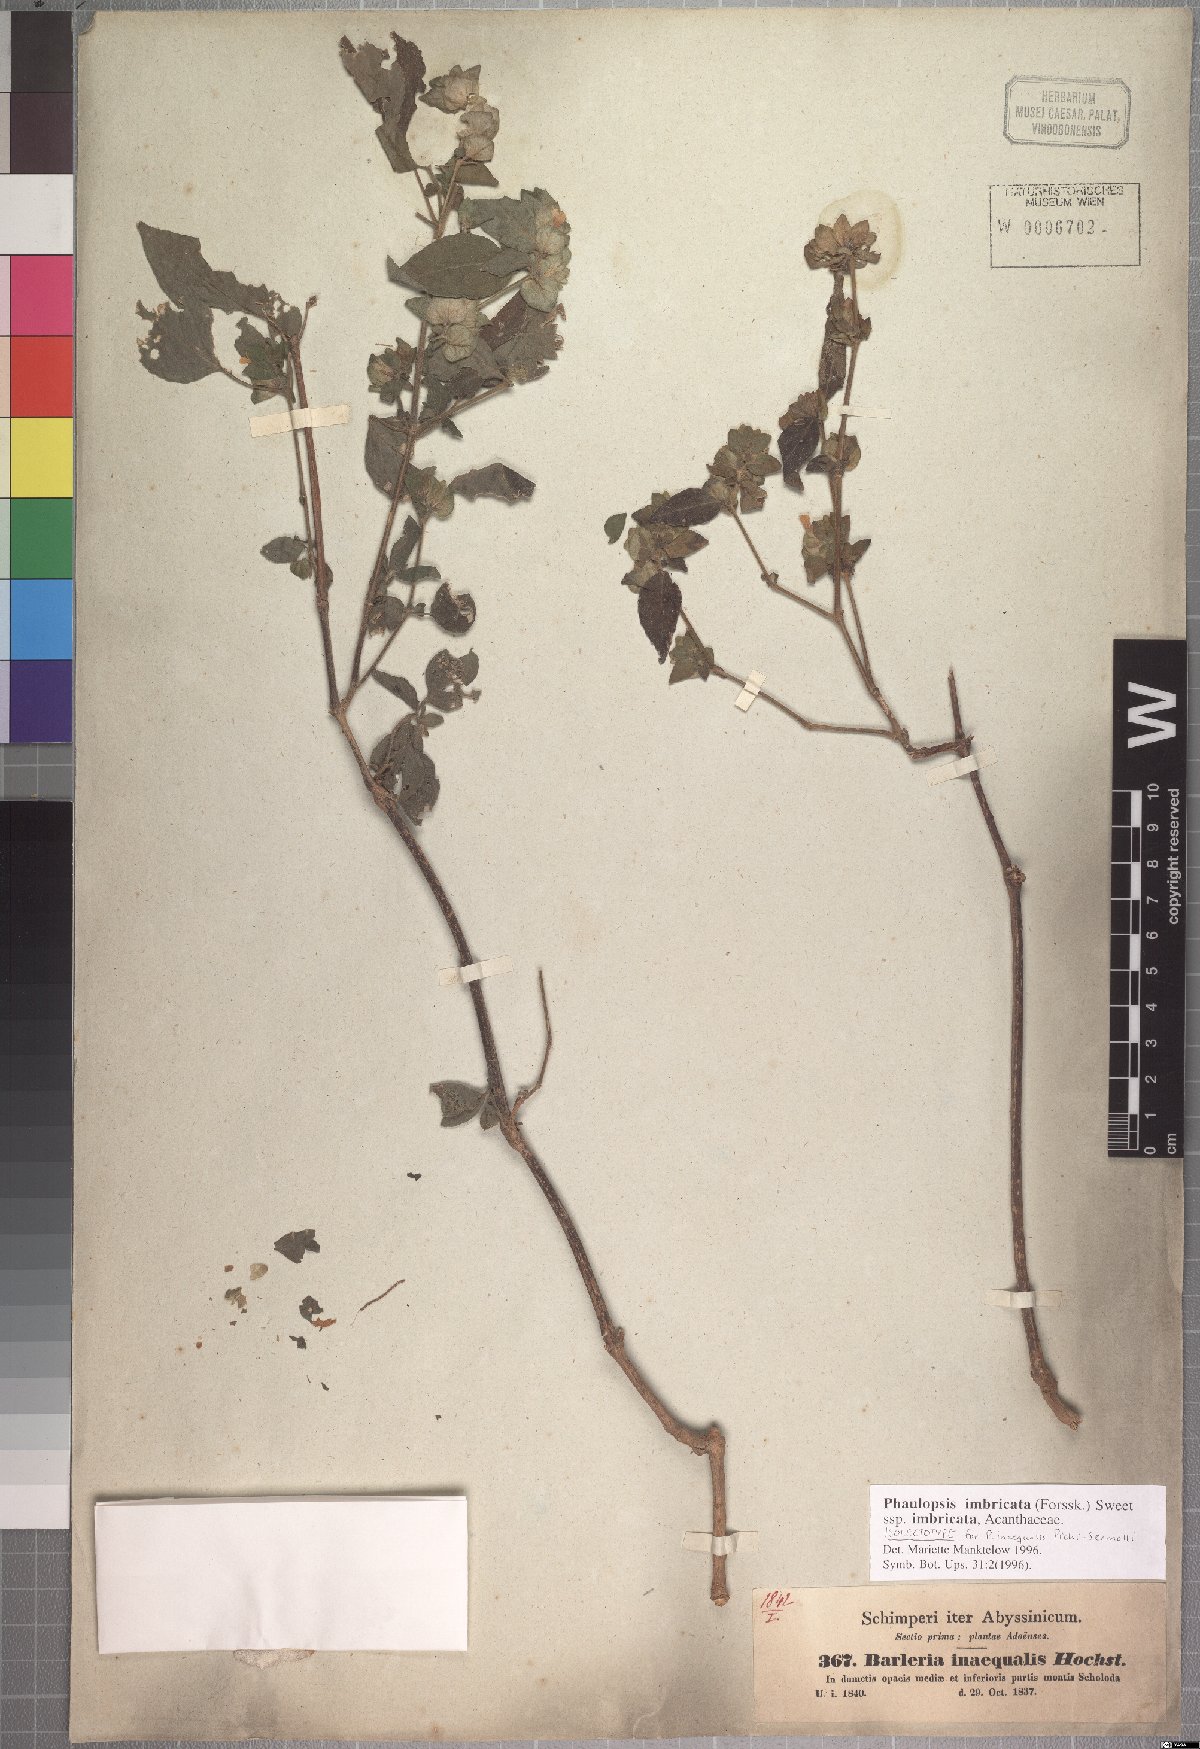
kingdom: Plantae
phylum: Tracheophyta
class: Magnoliopsida
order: Lamiales
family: Acanthaceae
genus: Phaulopsis
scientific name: Phaulopsis imbricata
